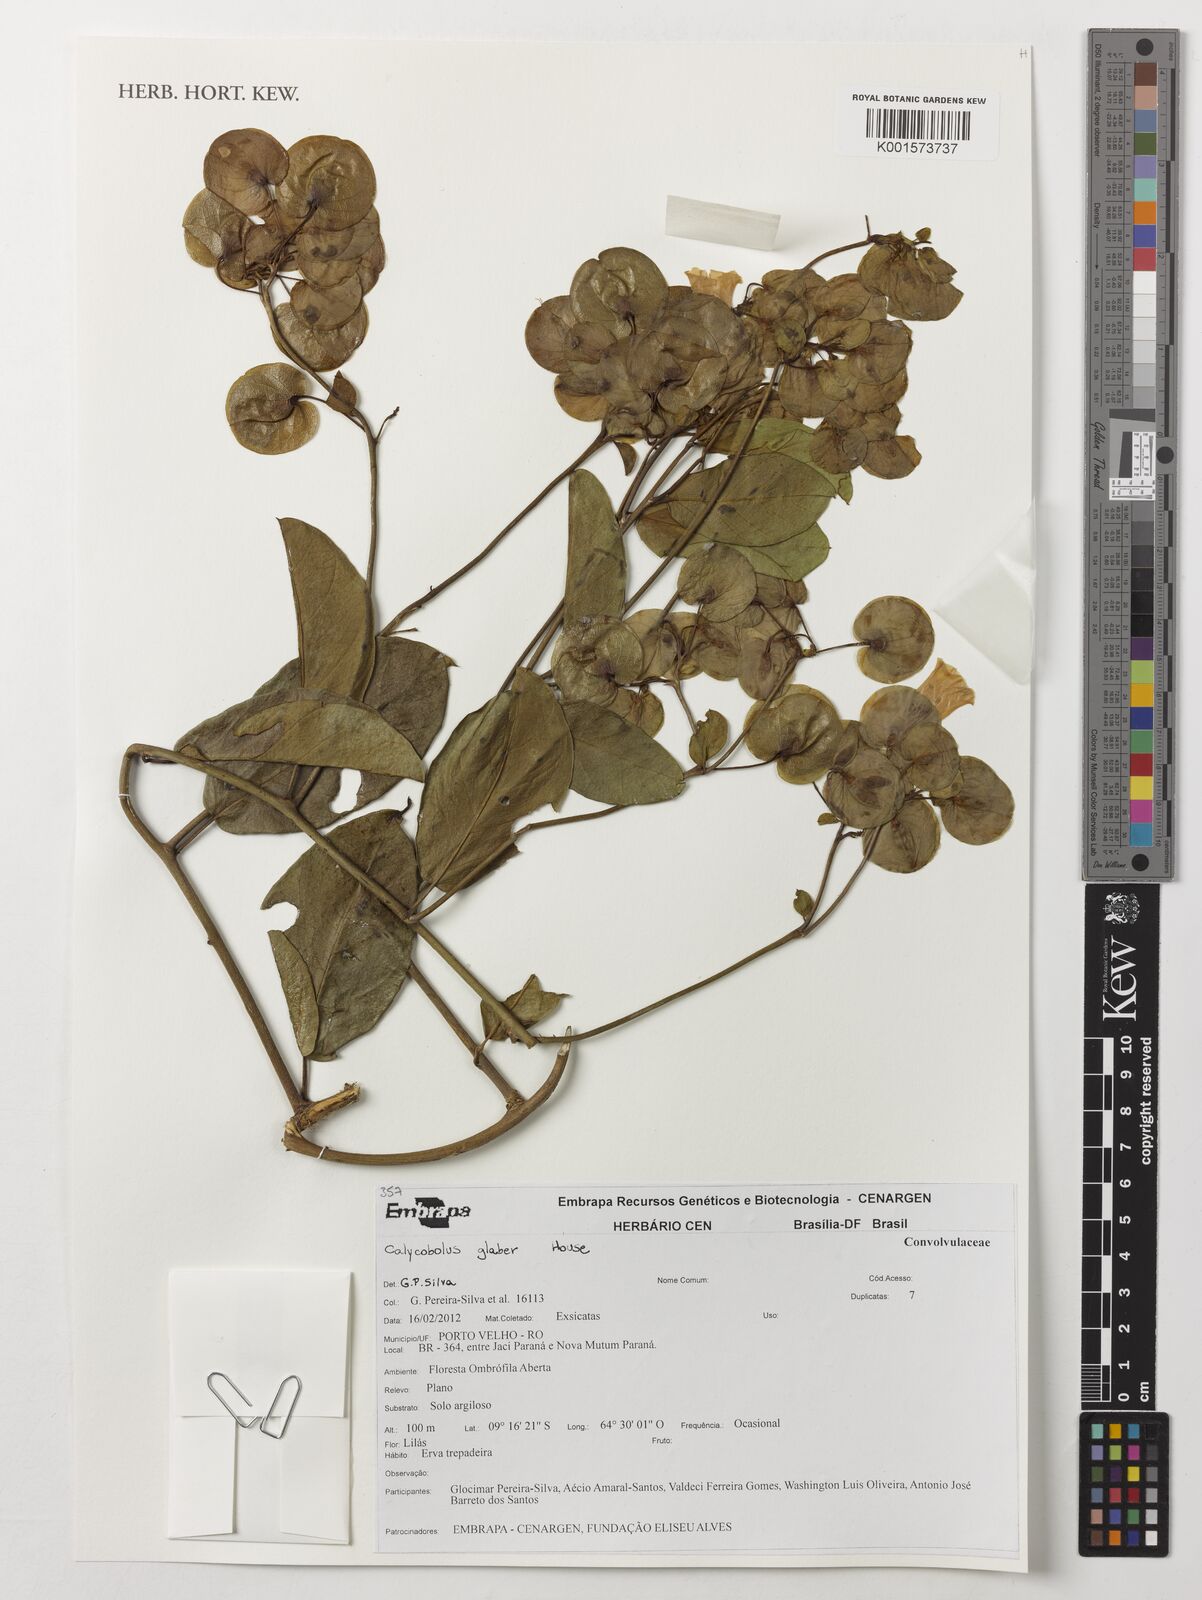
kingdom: Plantae
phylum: Tracheophyta
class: Magnoliopsida
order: Solanales
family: Convolvulaceae
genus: Calycobolus
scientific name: Calycobolus glaber
